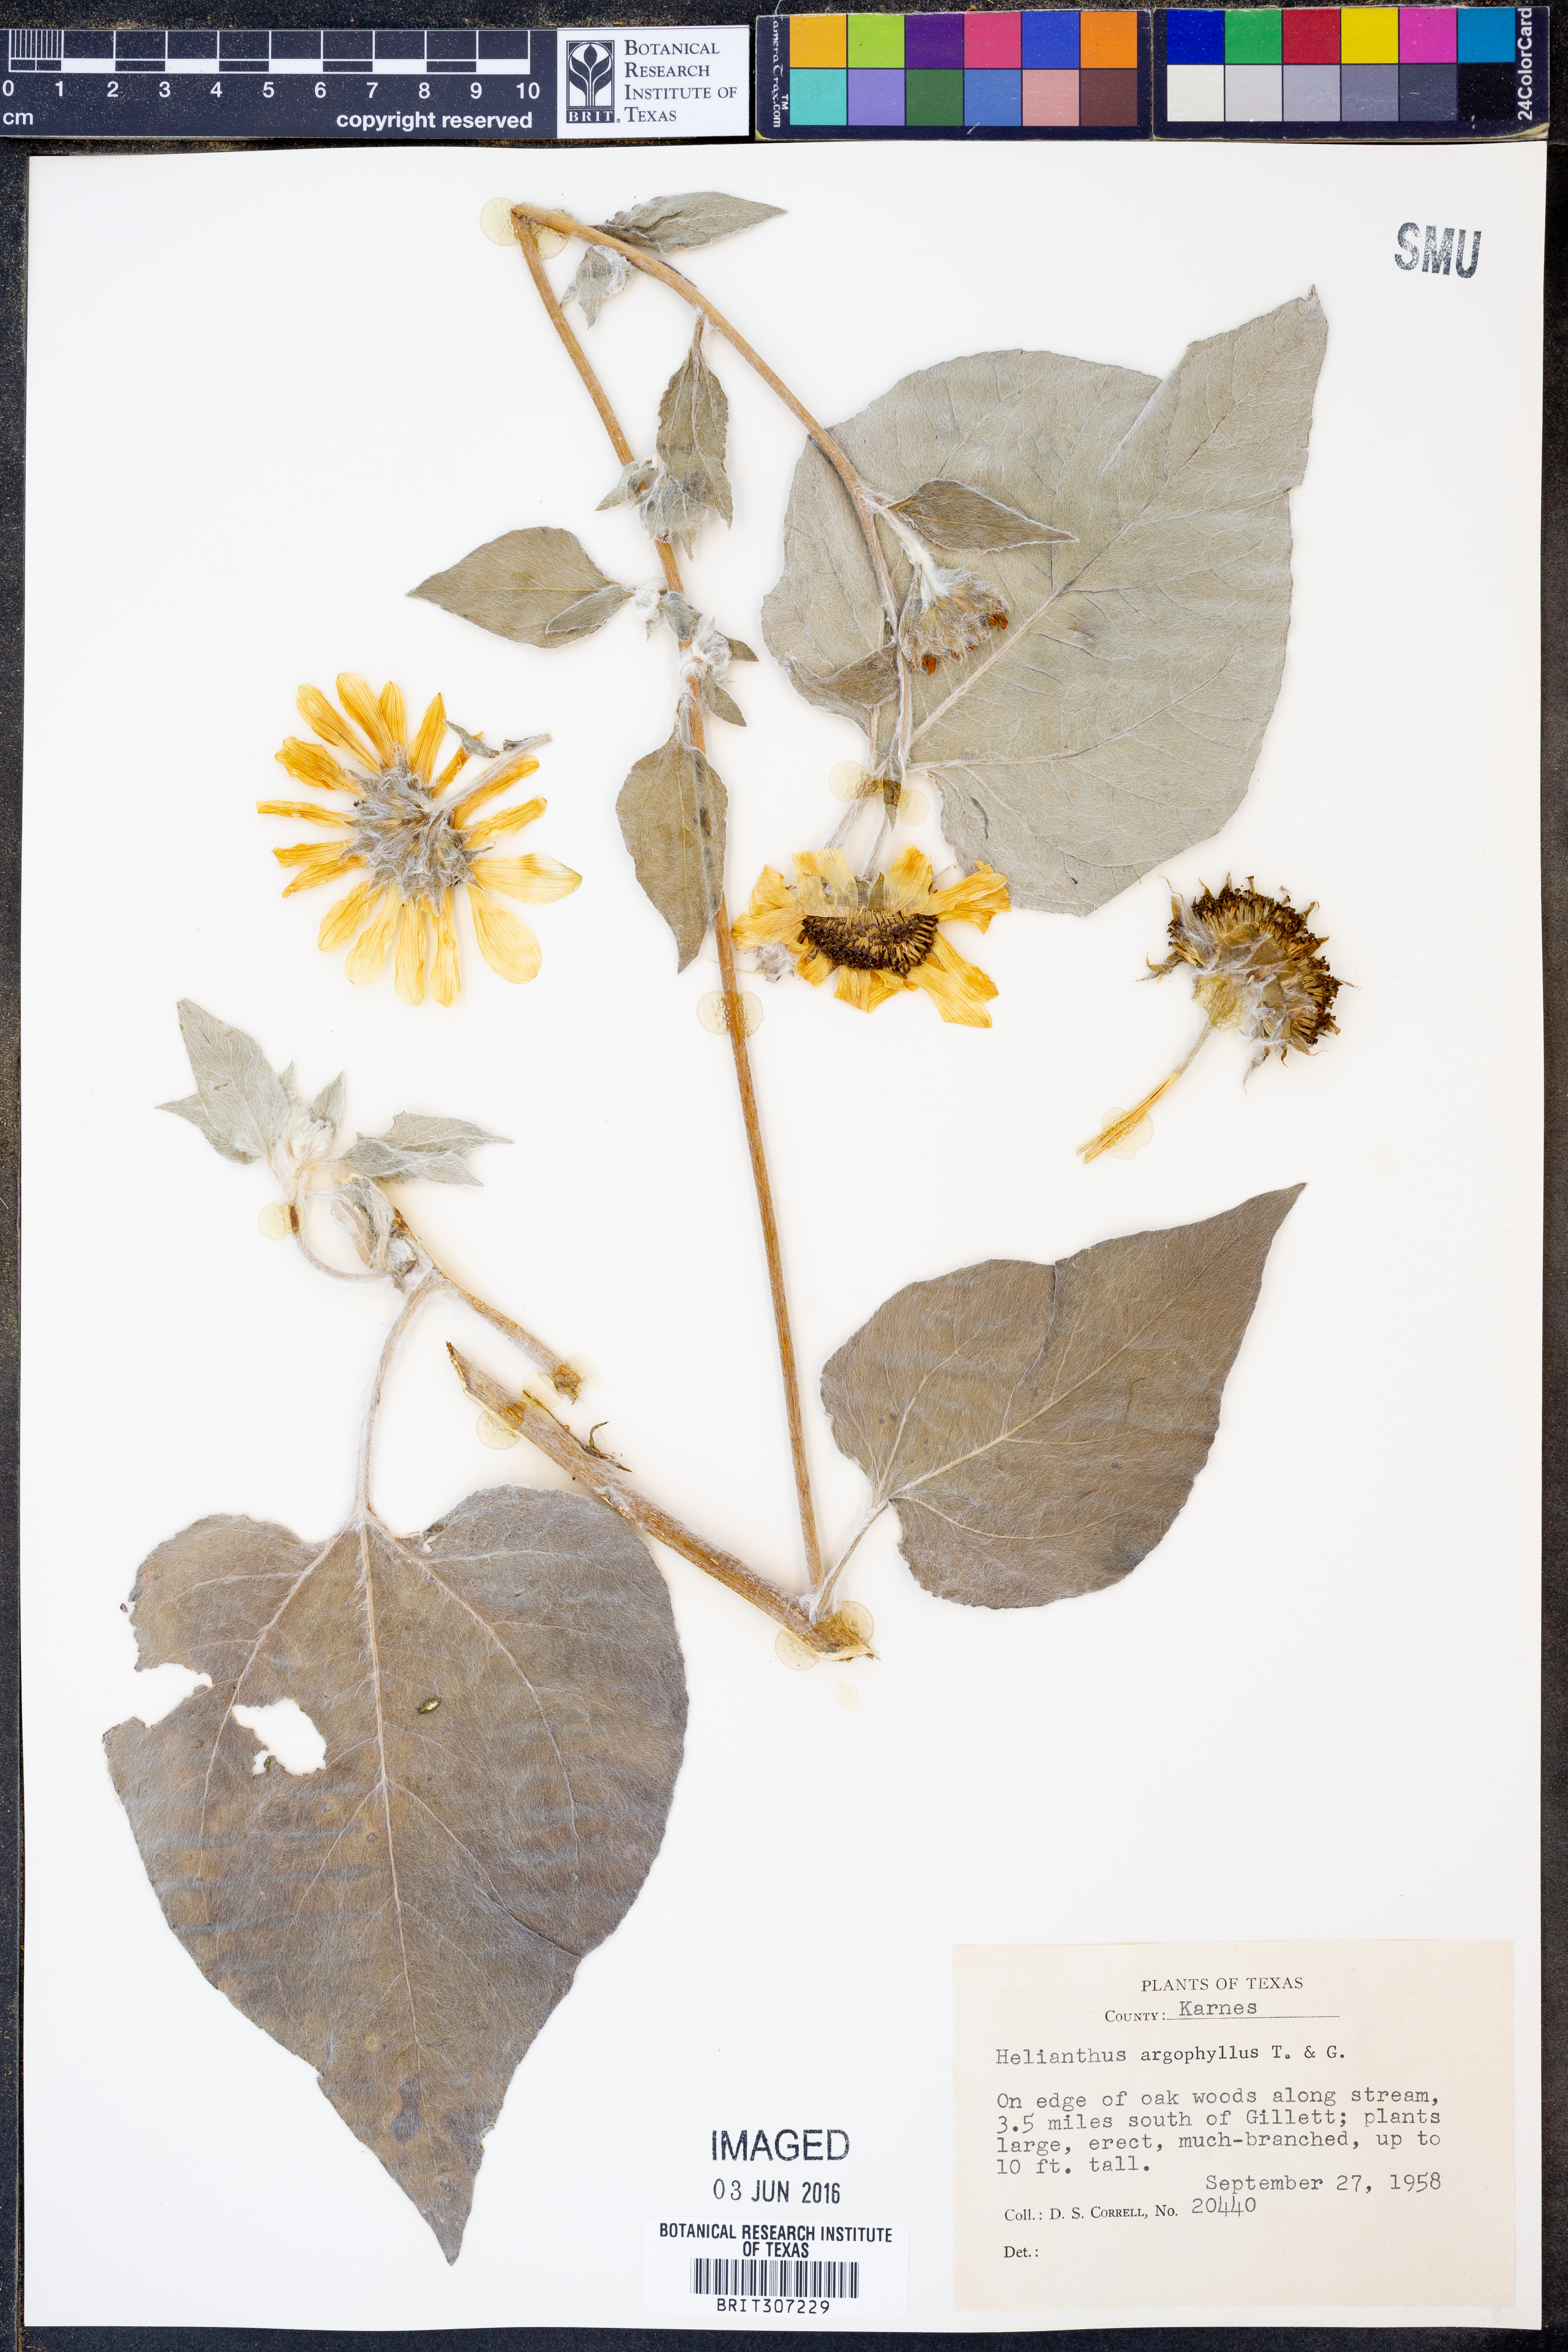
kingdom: Plantae
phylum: Tracheophyta
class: Magnoliopsida
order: Asterales
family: Asteraceae
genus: Helianthus
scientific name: Helianthus argophyllus
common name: Silverleaf sunflower
